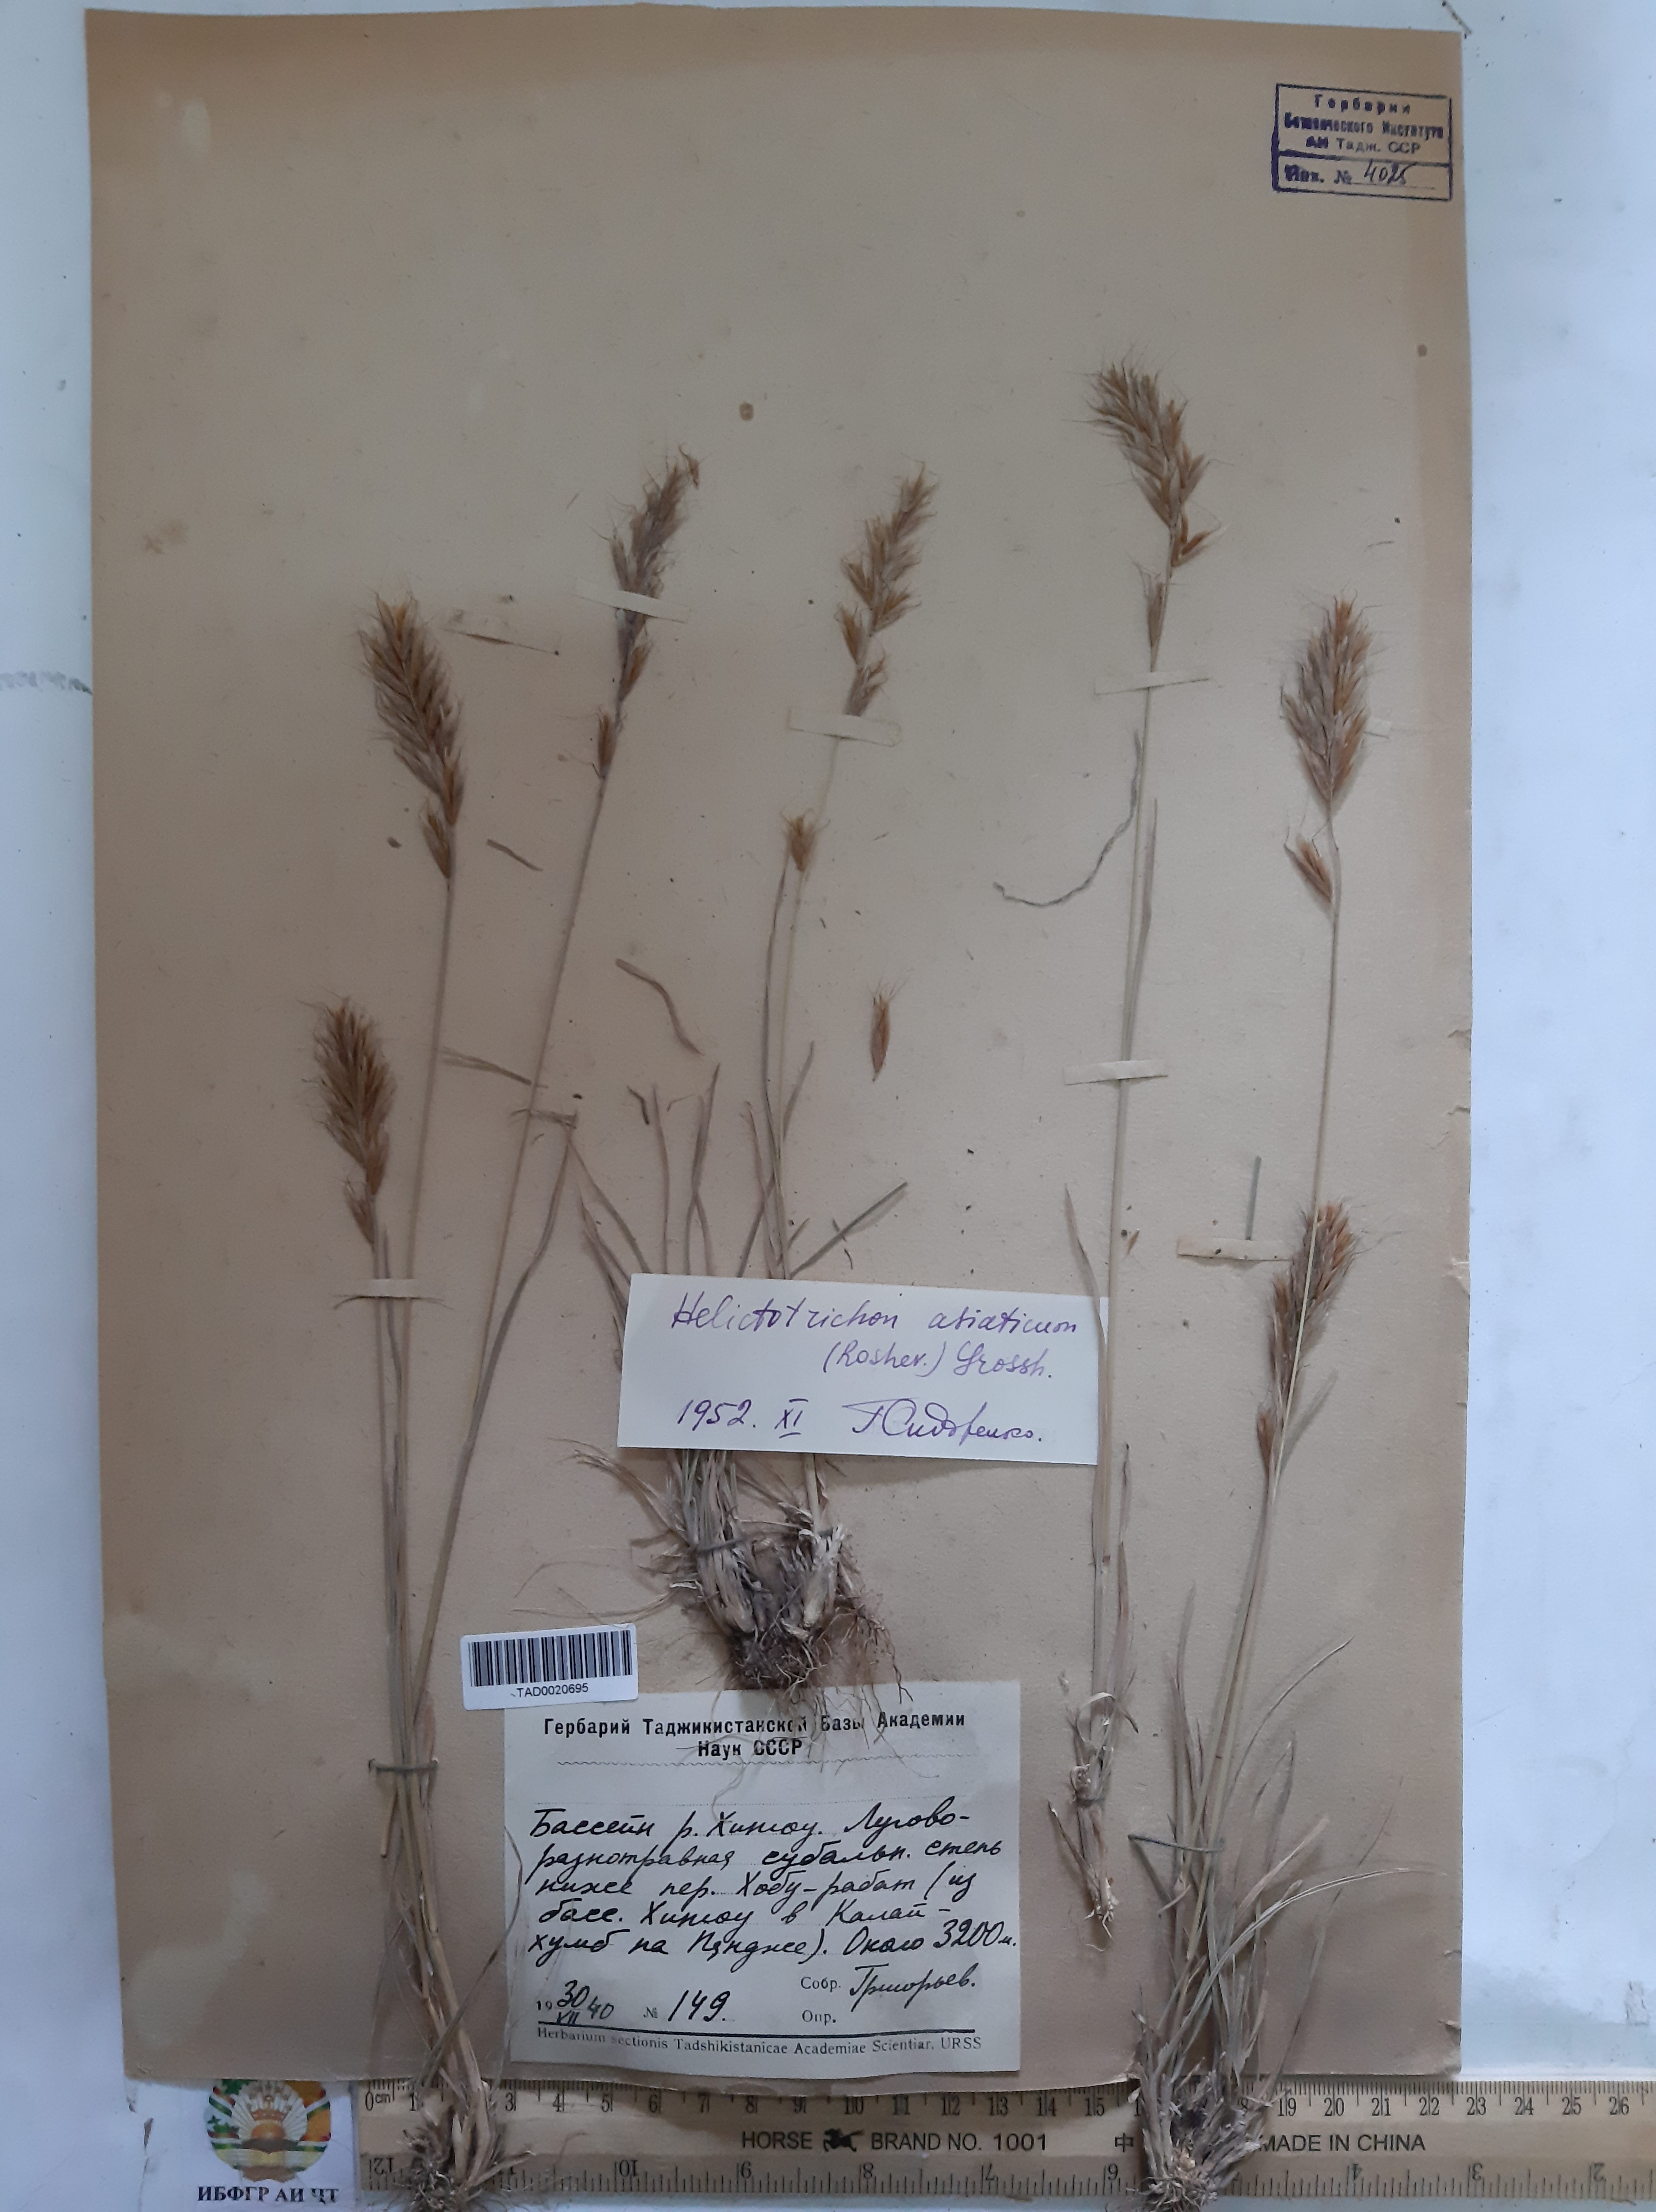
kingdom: Plantae
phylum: Tracheophyta
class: Liliopsida
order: Poales
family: Poaceae
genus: Helictochloa
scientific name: Helictochloa hookeri
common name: Hooker's alpine oatgrass
